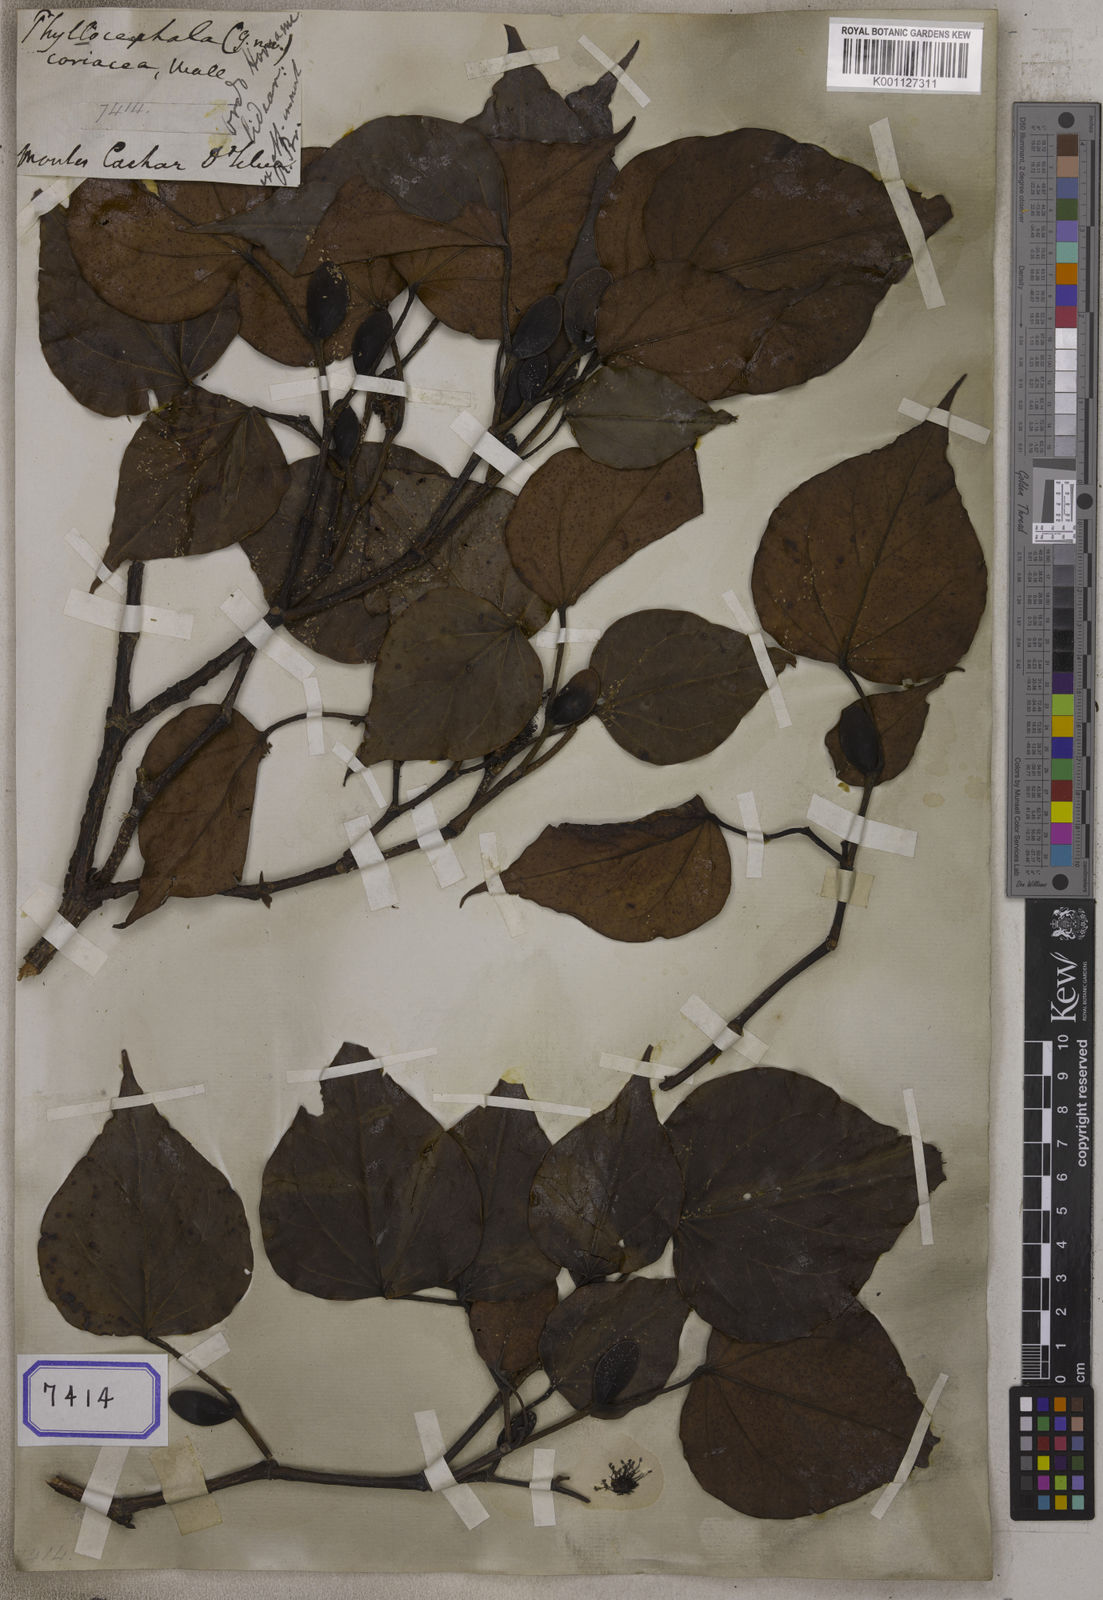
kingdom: Plantae
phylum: Tracheophyta
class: Magnoliopsida
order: Saxifragales
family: Hamamelidaceae
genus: Bucklandia
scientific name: Bucklandia
